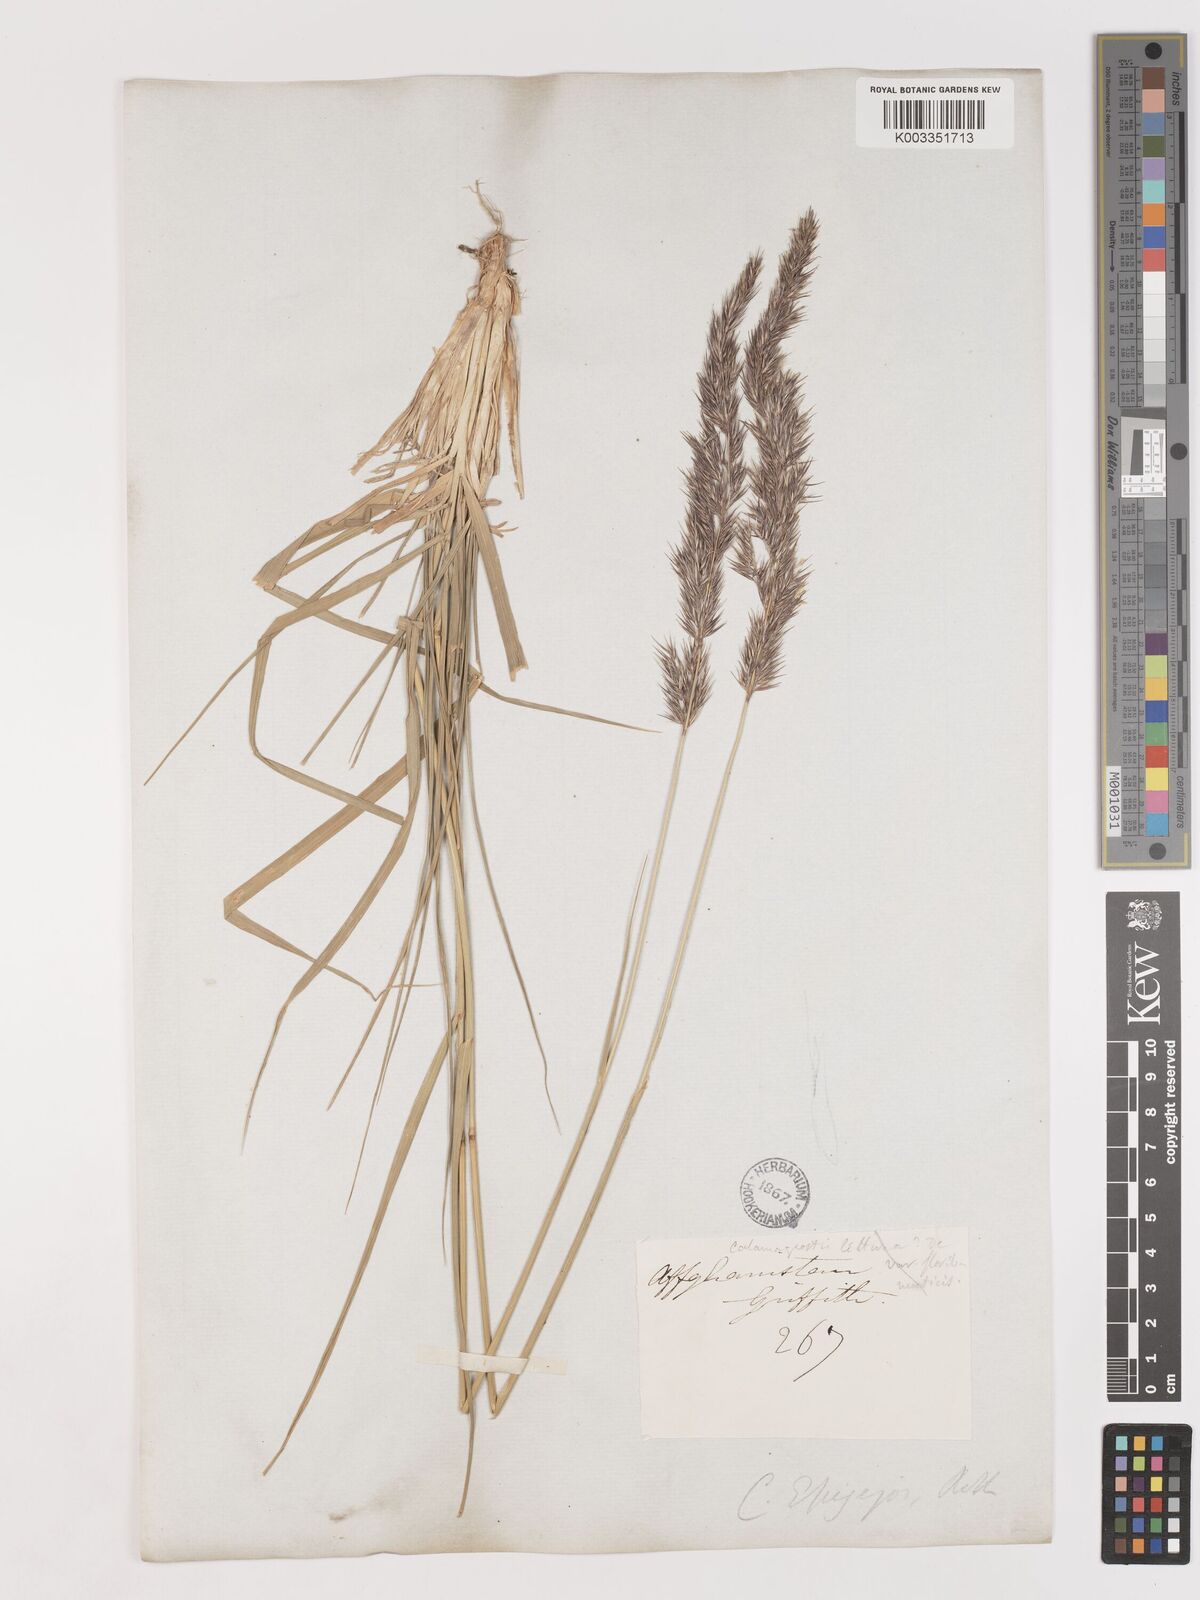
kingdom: Plantae
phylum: Tracheophyta
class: Liliopsida
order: Poales
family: Poaceae
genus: Calamagrostis
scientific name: Calamagrostis epigejos
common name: Wood small-reed
